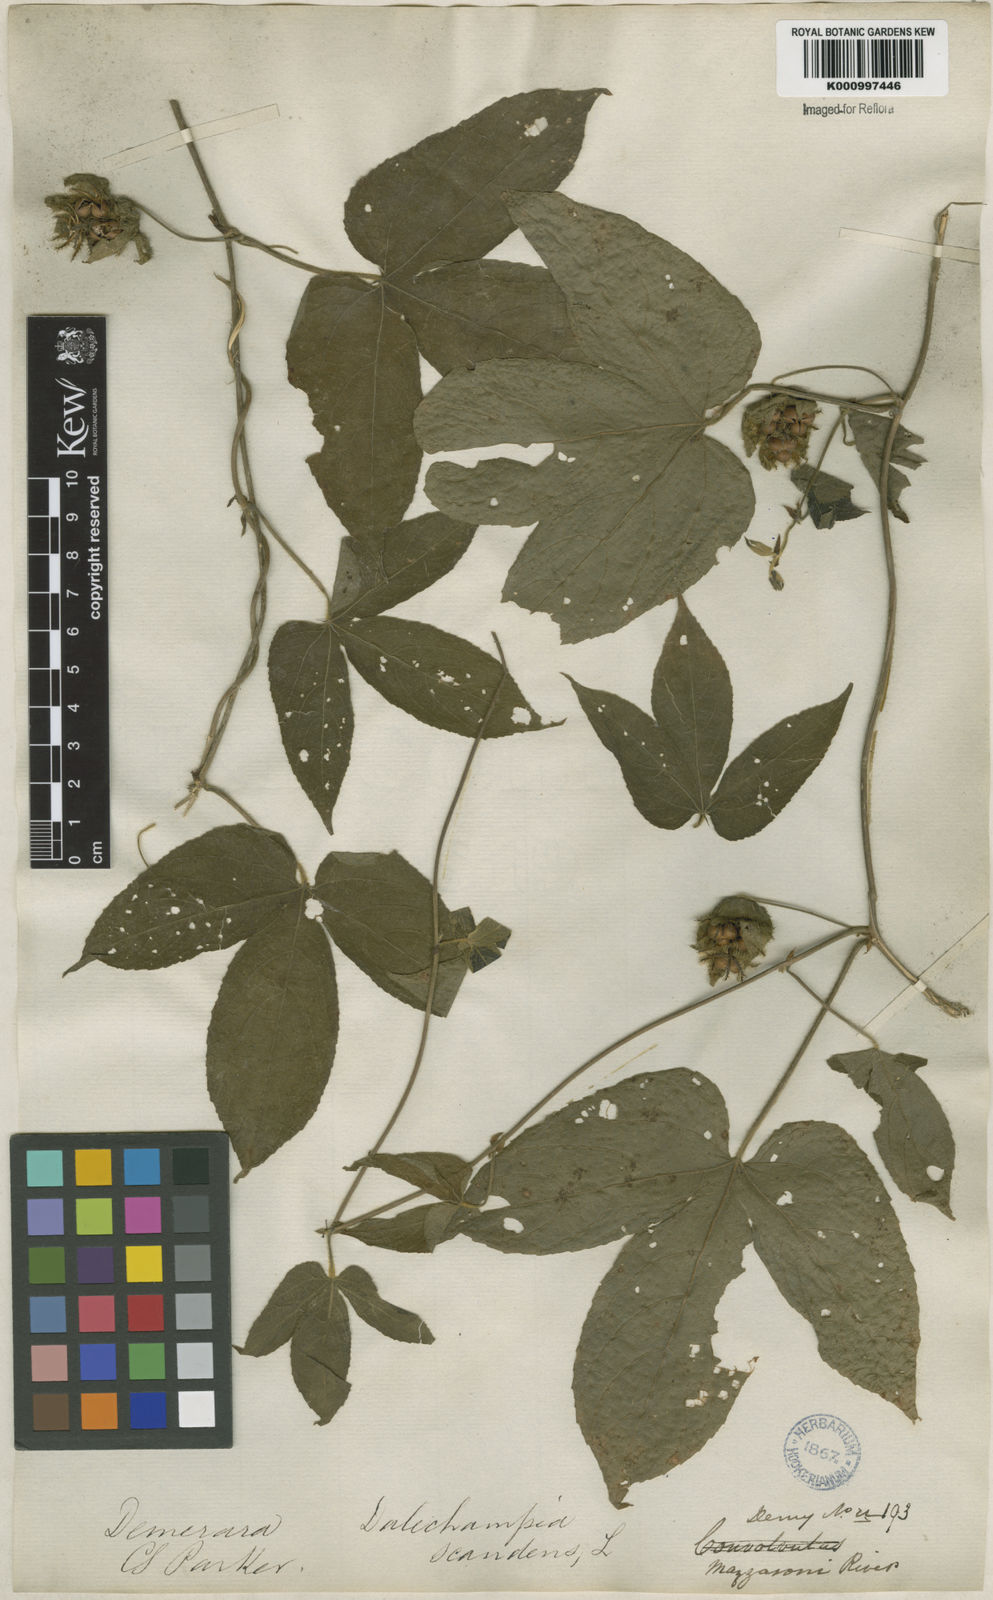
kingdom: Plantae
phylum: Tracheophyta
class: Magnoliopsida
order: Malpighiales
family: Euphorbiaceae
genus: Dalechampia
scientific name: Dalechampia scandens
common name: Spurgecreeper
